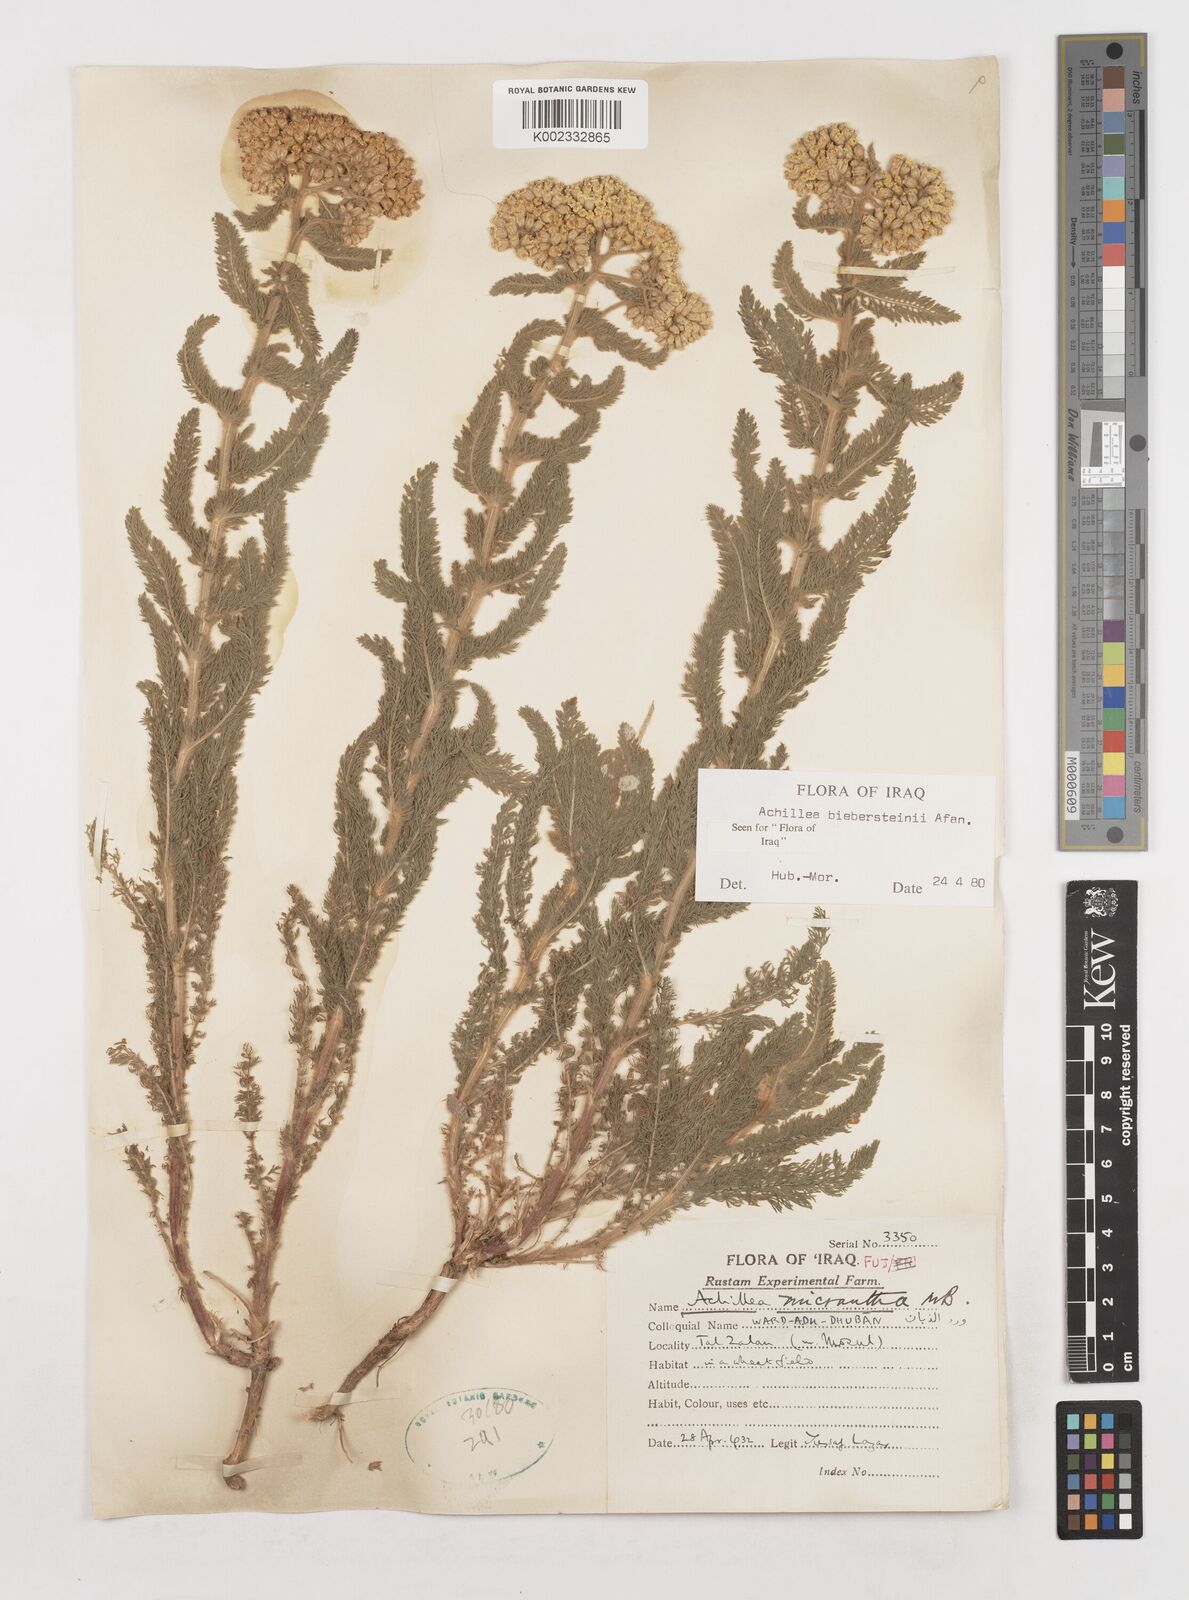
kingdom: Plantae
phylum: Tracheophyta
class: Magnoliopsida
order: Asterales
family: Asteraceae
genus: Achillea
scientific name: Achillea arabica
